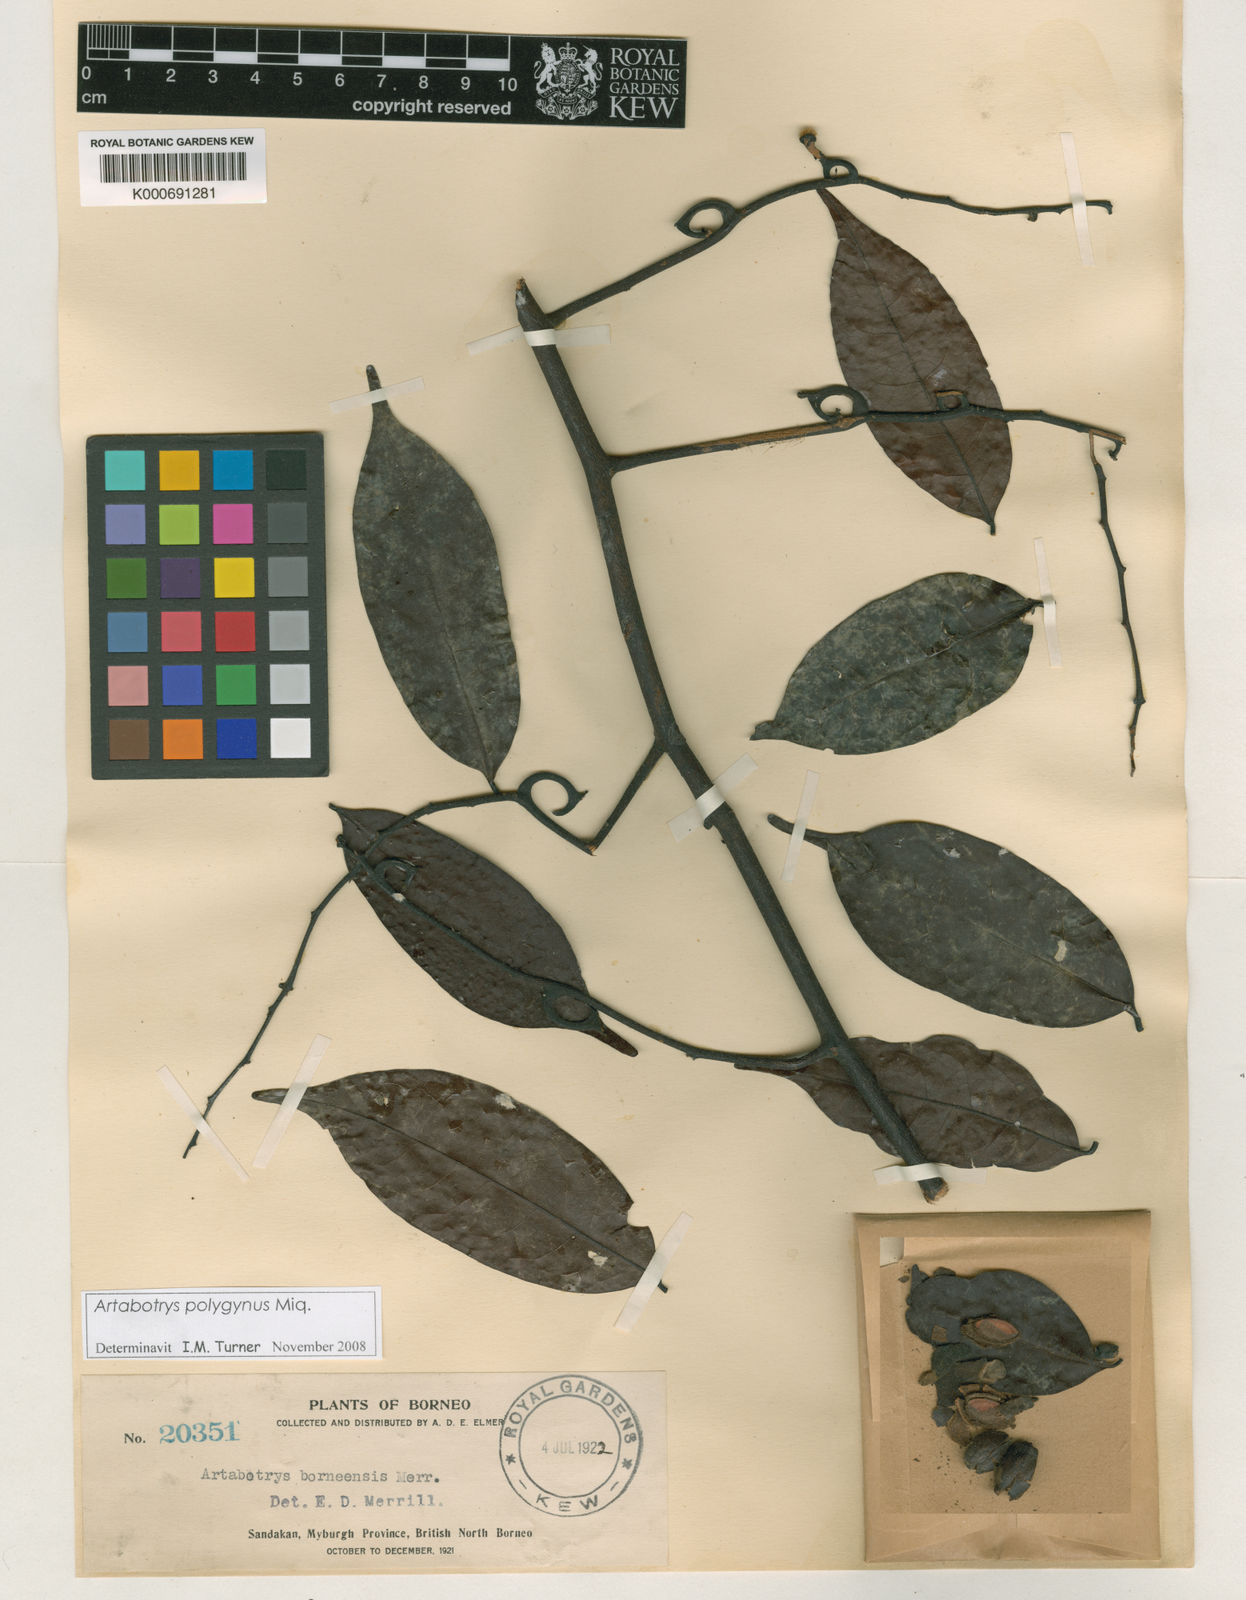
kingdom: Plantae
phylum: Tracheophyta
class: Magnoliopsida
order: Magnoliales
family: Annonaceae
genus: Artabotrys
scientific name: Artabotrys polygynus
